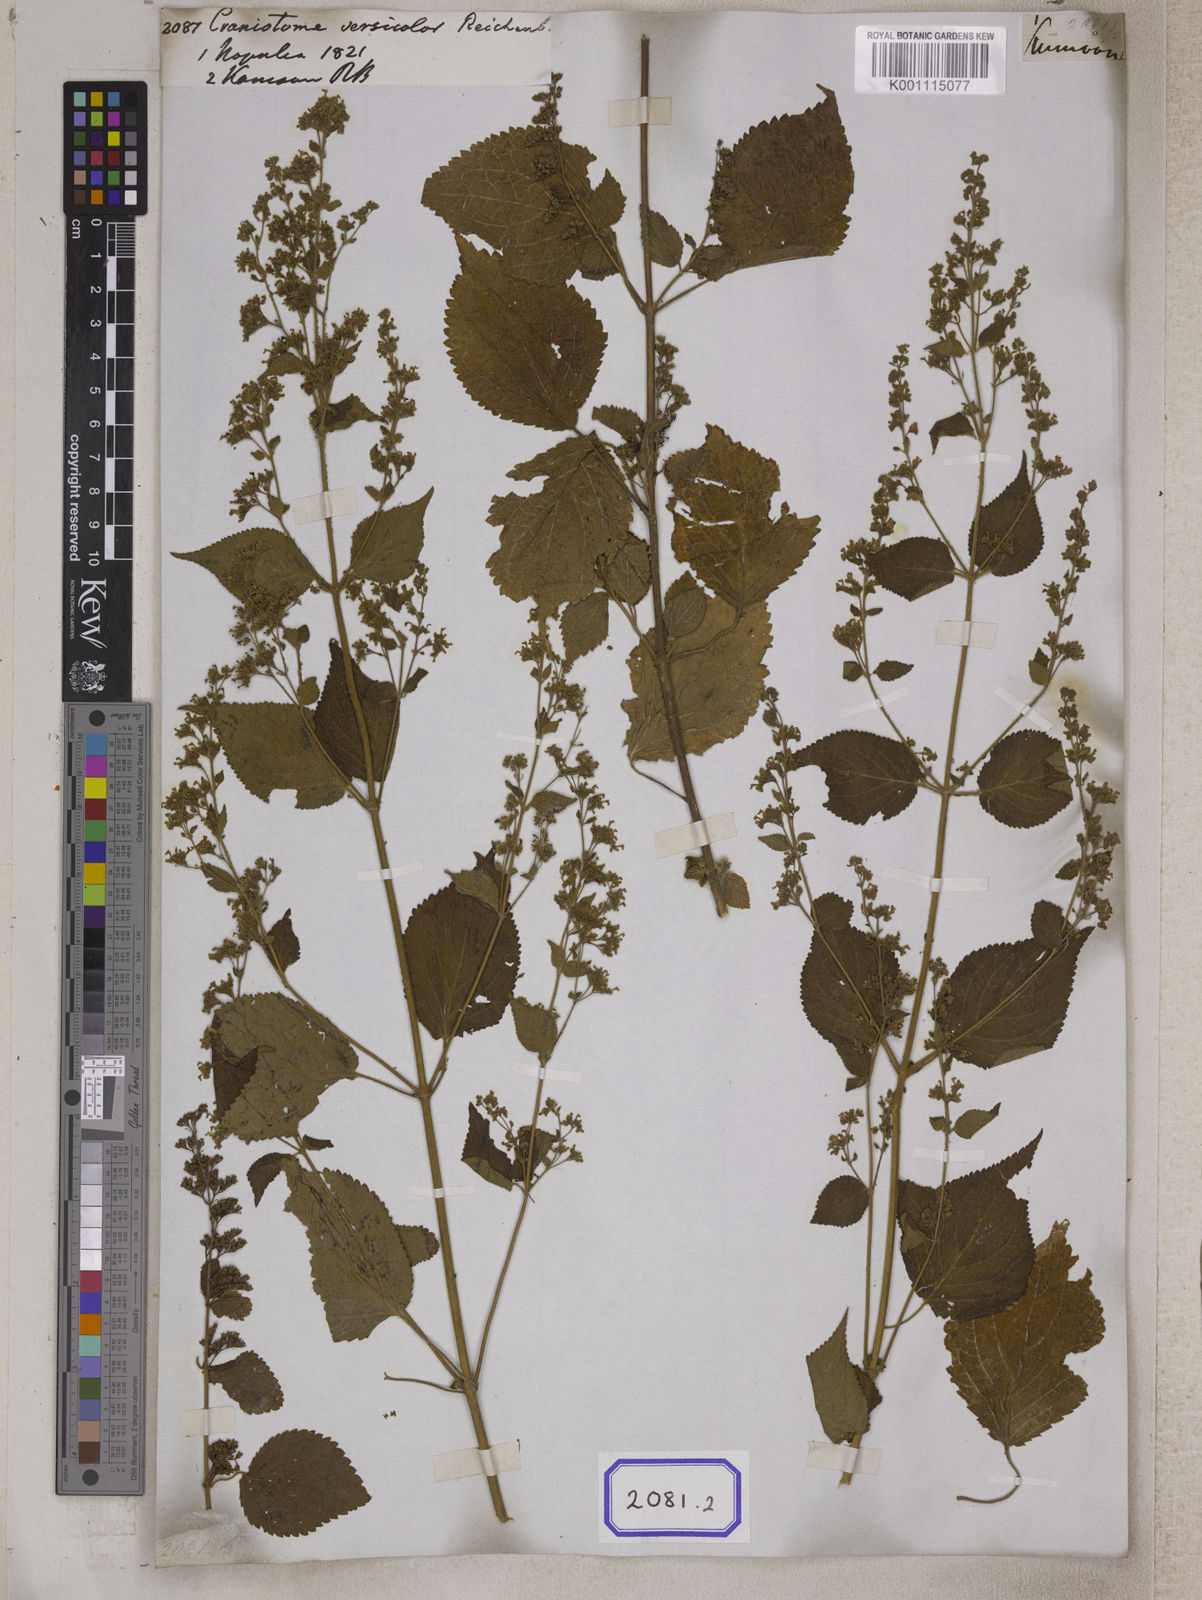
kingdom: Plantae
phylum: Tracheophyta
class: Magnoliopsida
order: Lamiales
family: Lamiaceae
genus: Craniotome
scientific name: Craniotome furcata
